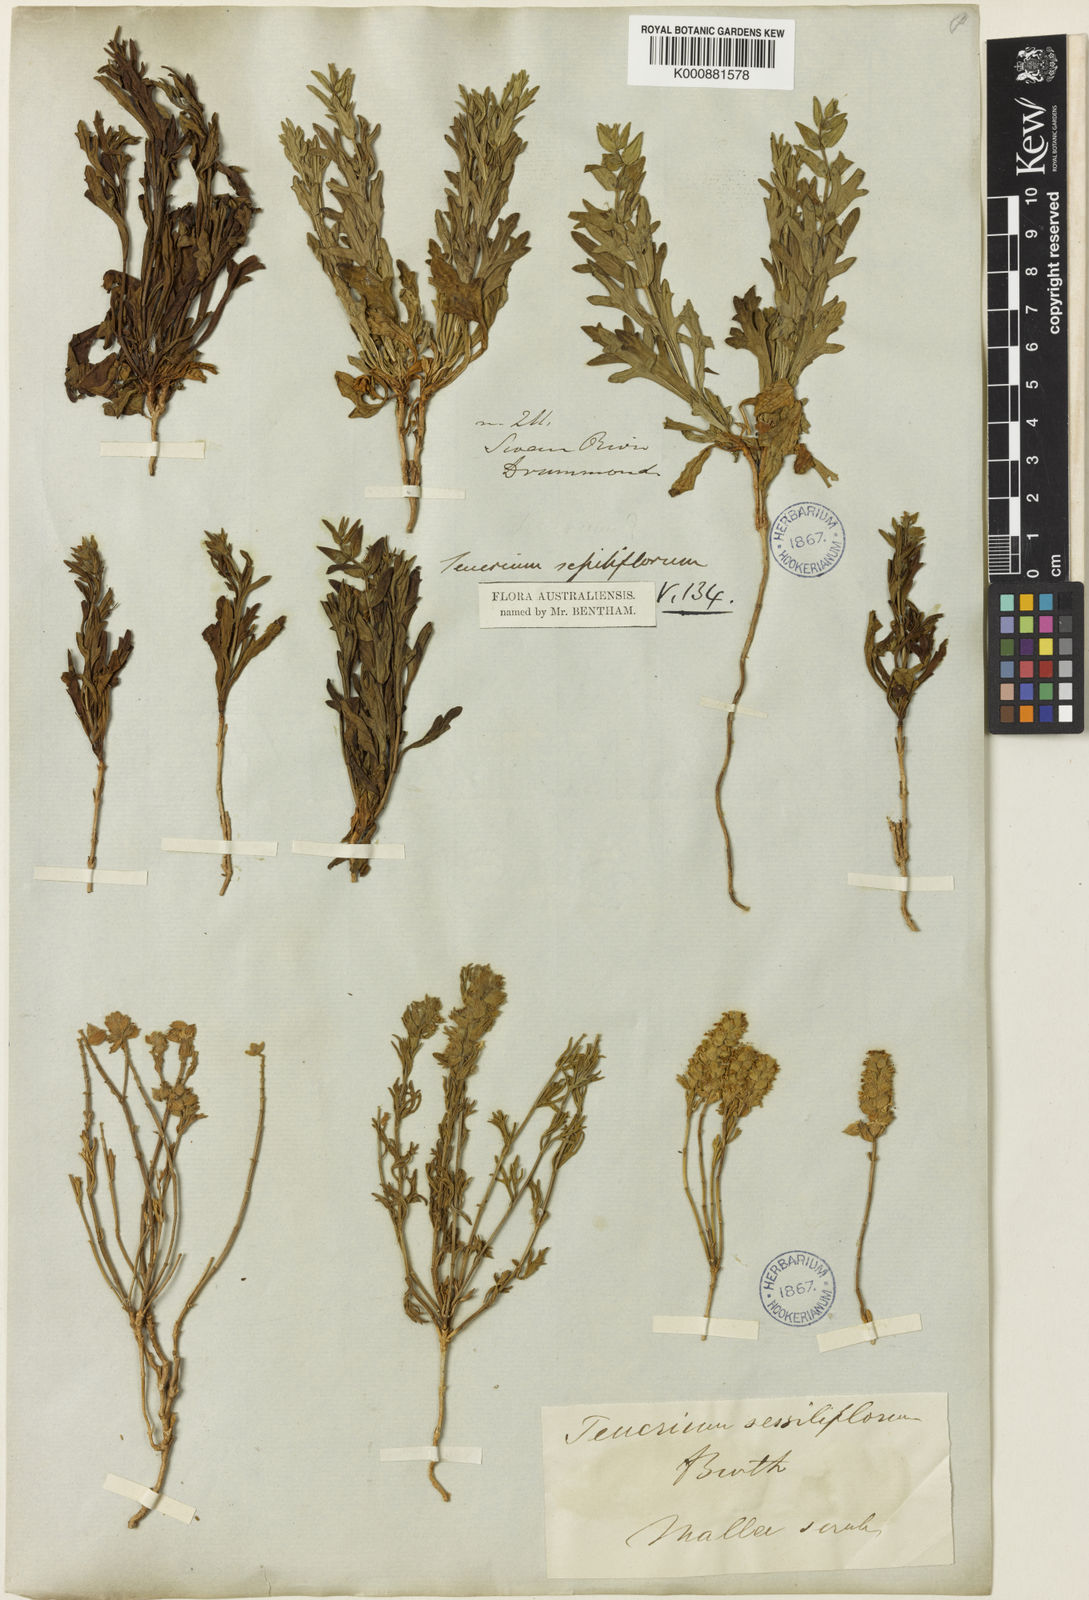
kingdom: Plantae
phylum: Tracheophyta
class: Magnoliopsida
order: Lamiales
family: Lamiaceae
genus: Teucrium
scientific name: Teucrium sessiliflorum
